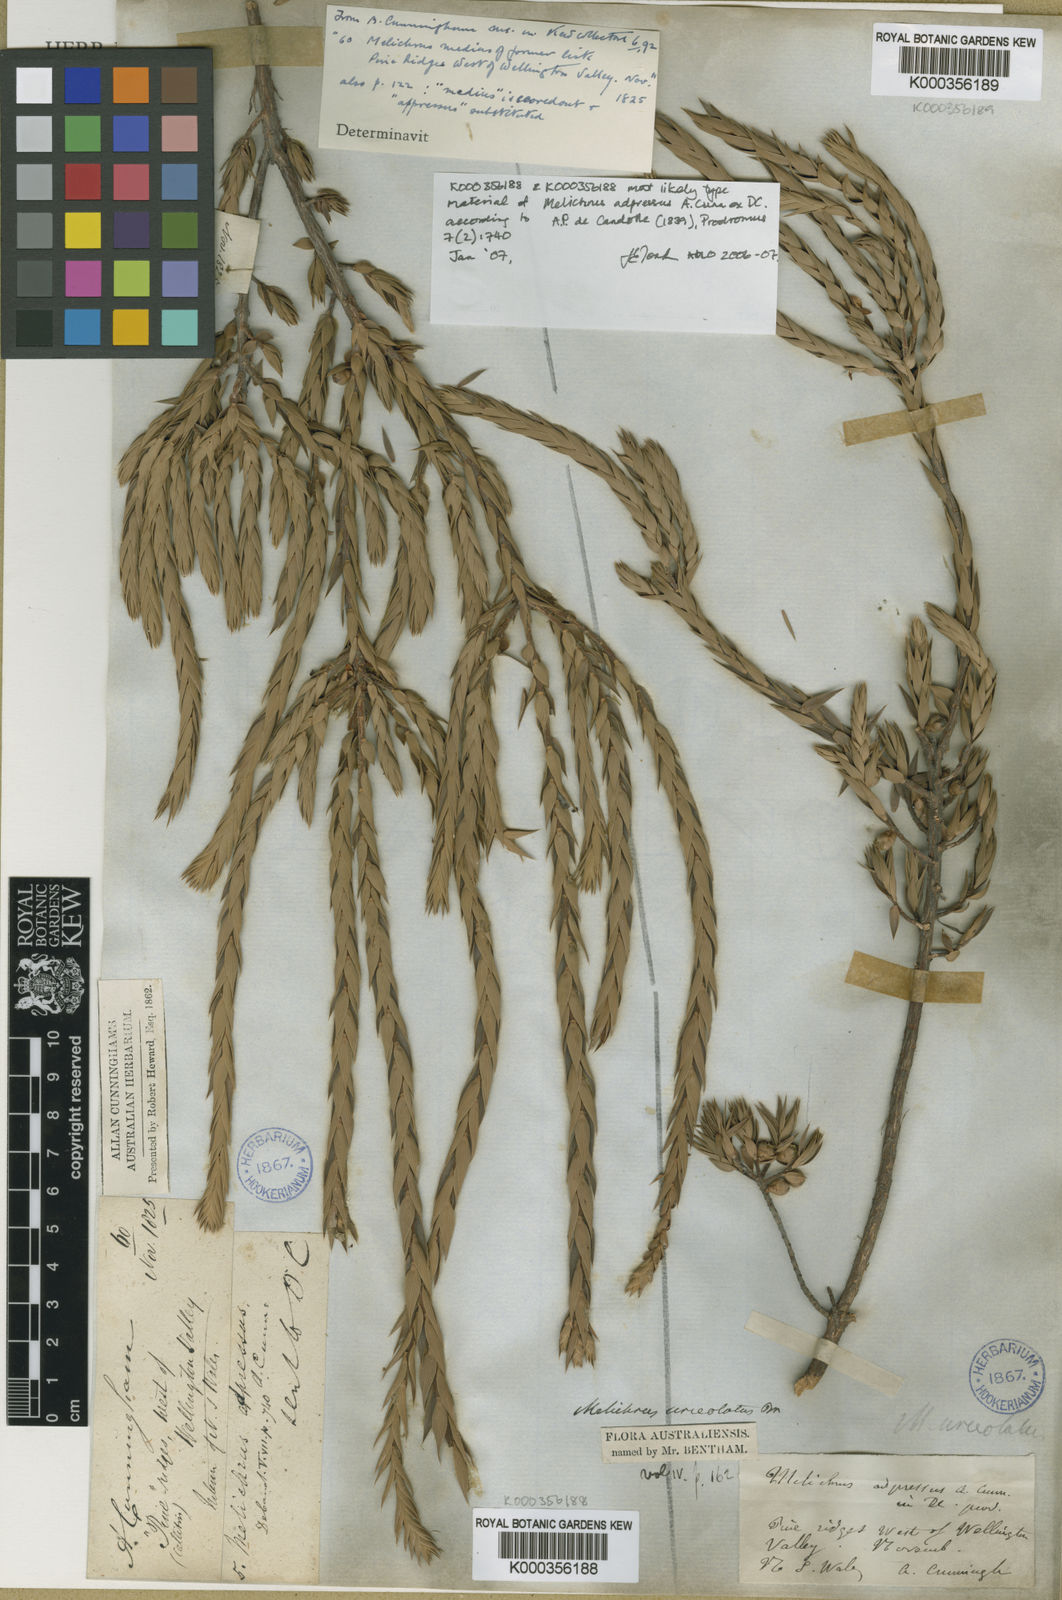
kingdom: Plantae
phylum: Tracheophyta
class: Magnoliopsida
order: Ericales
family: Ericaceae
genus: Melichrus
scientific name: Melichrus adpressus
